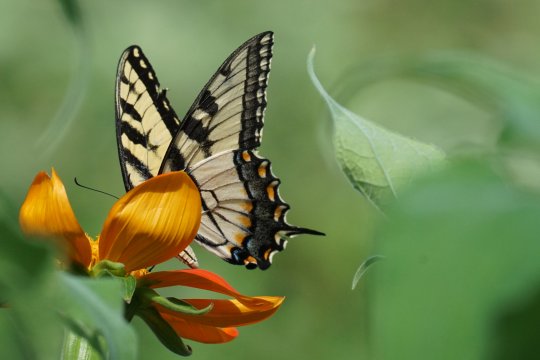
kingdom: Animalia
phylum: Arthropoda
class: Insecta
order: Lepidoptera
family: Papilionidae
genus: Pterourus
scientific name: Pterourus glaucus
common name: Eastern Tiger Swallowtail
